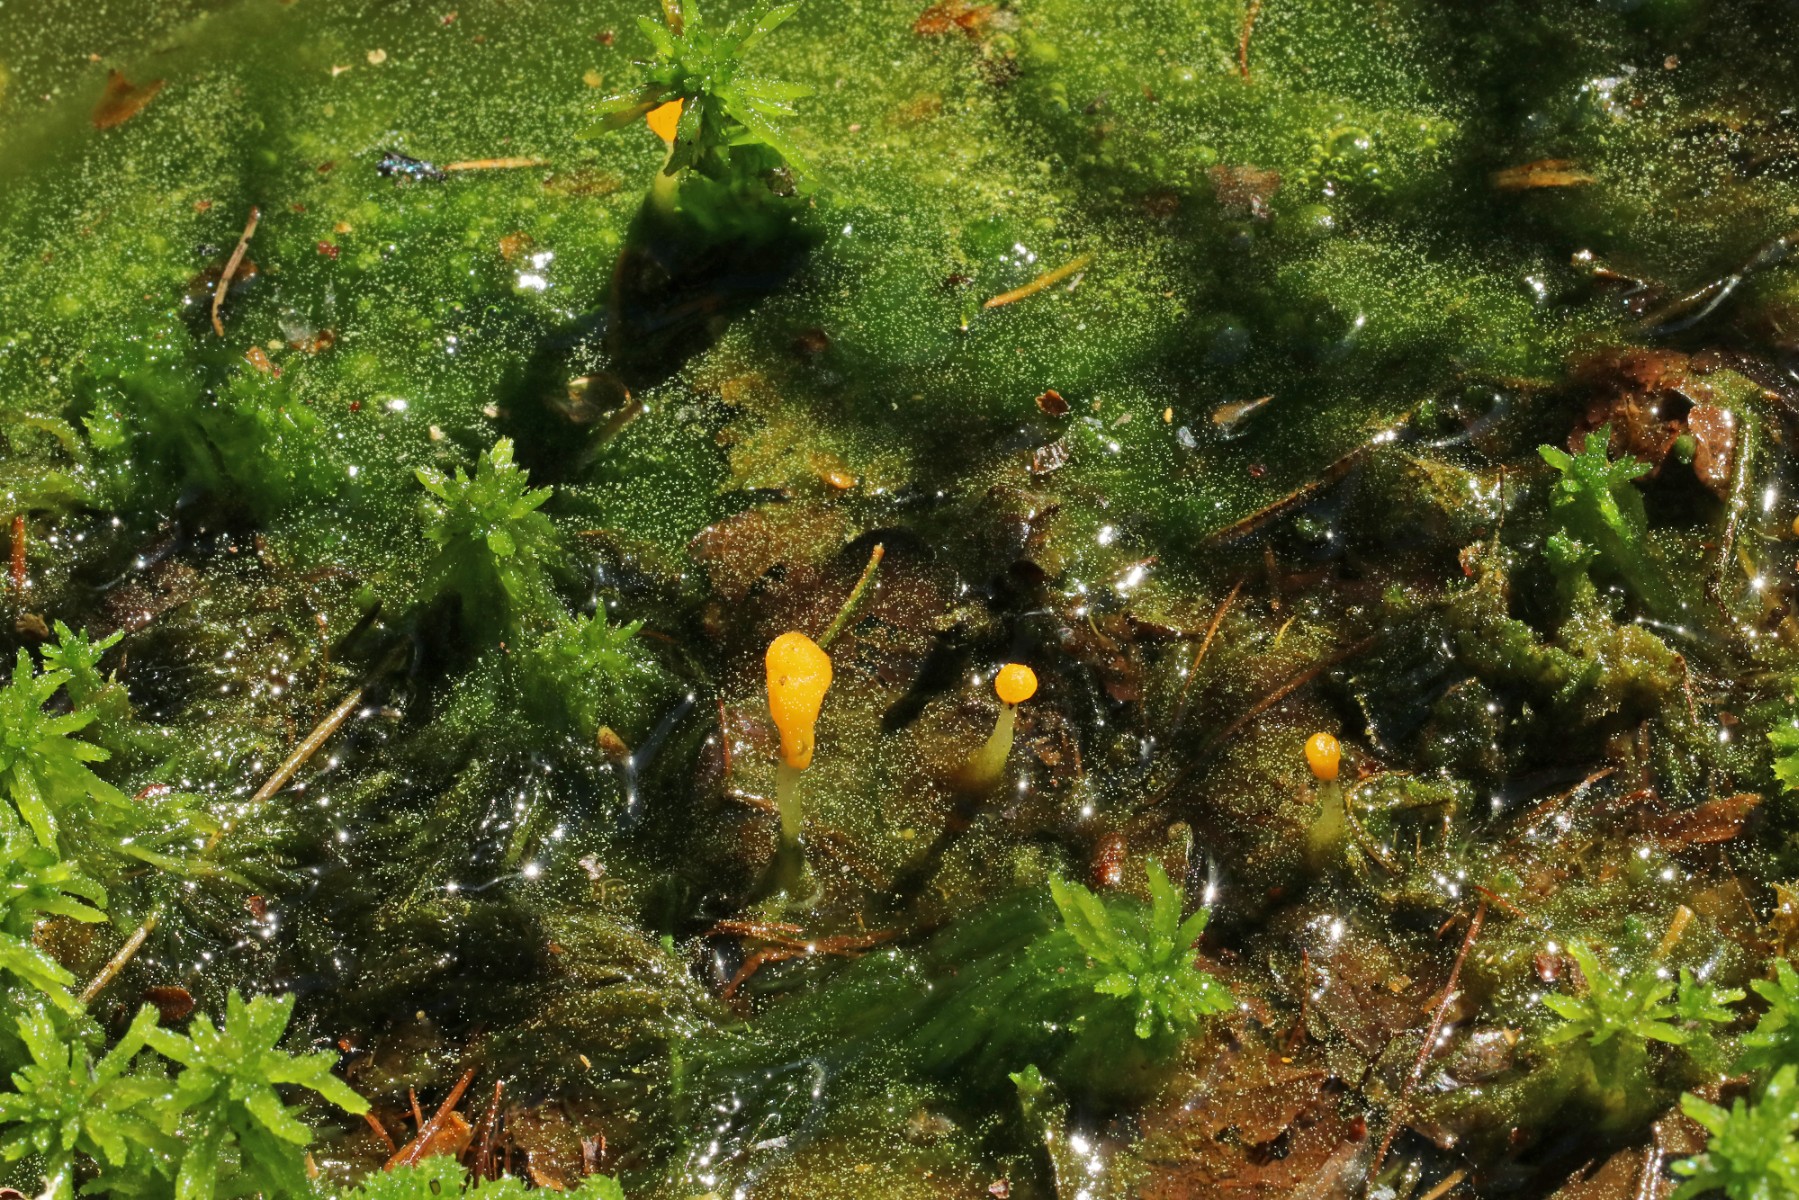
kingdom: Fungi
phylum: Ascomycota
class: Leotiomycetes
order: Helotiales
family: Cenangiaceae
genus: Mitrula
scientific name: Mitrula paludosa
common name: gul nøkketunge
